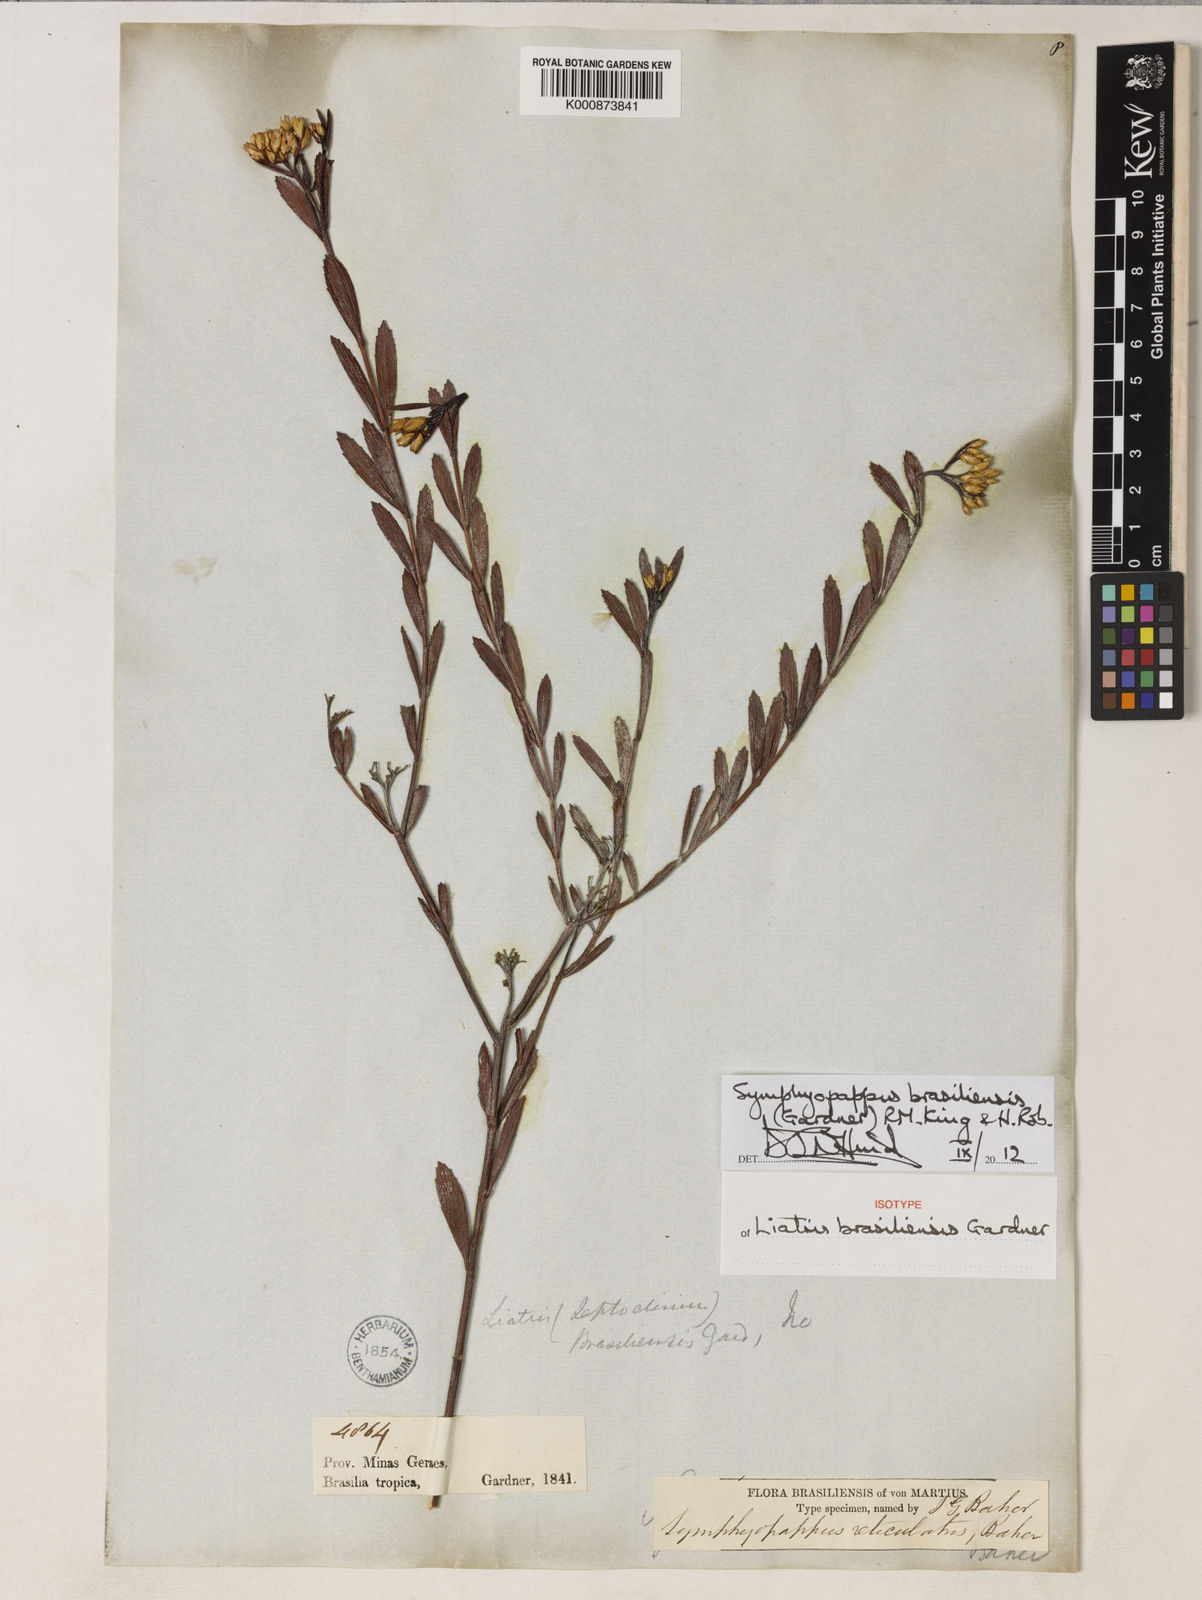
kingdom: Plantae
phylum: Tracheophyta
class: Magnoliopsida
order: Asterales
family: Asteraceae
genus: Symphyopappus
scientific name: Symphyopappus brasiliensis
